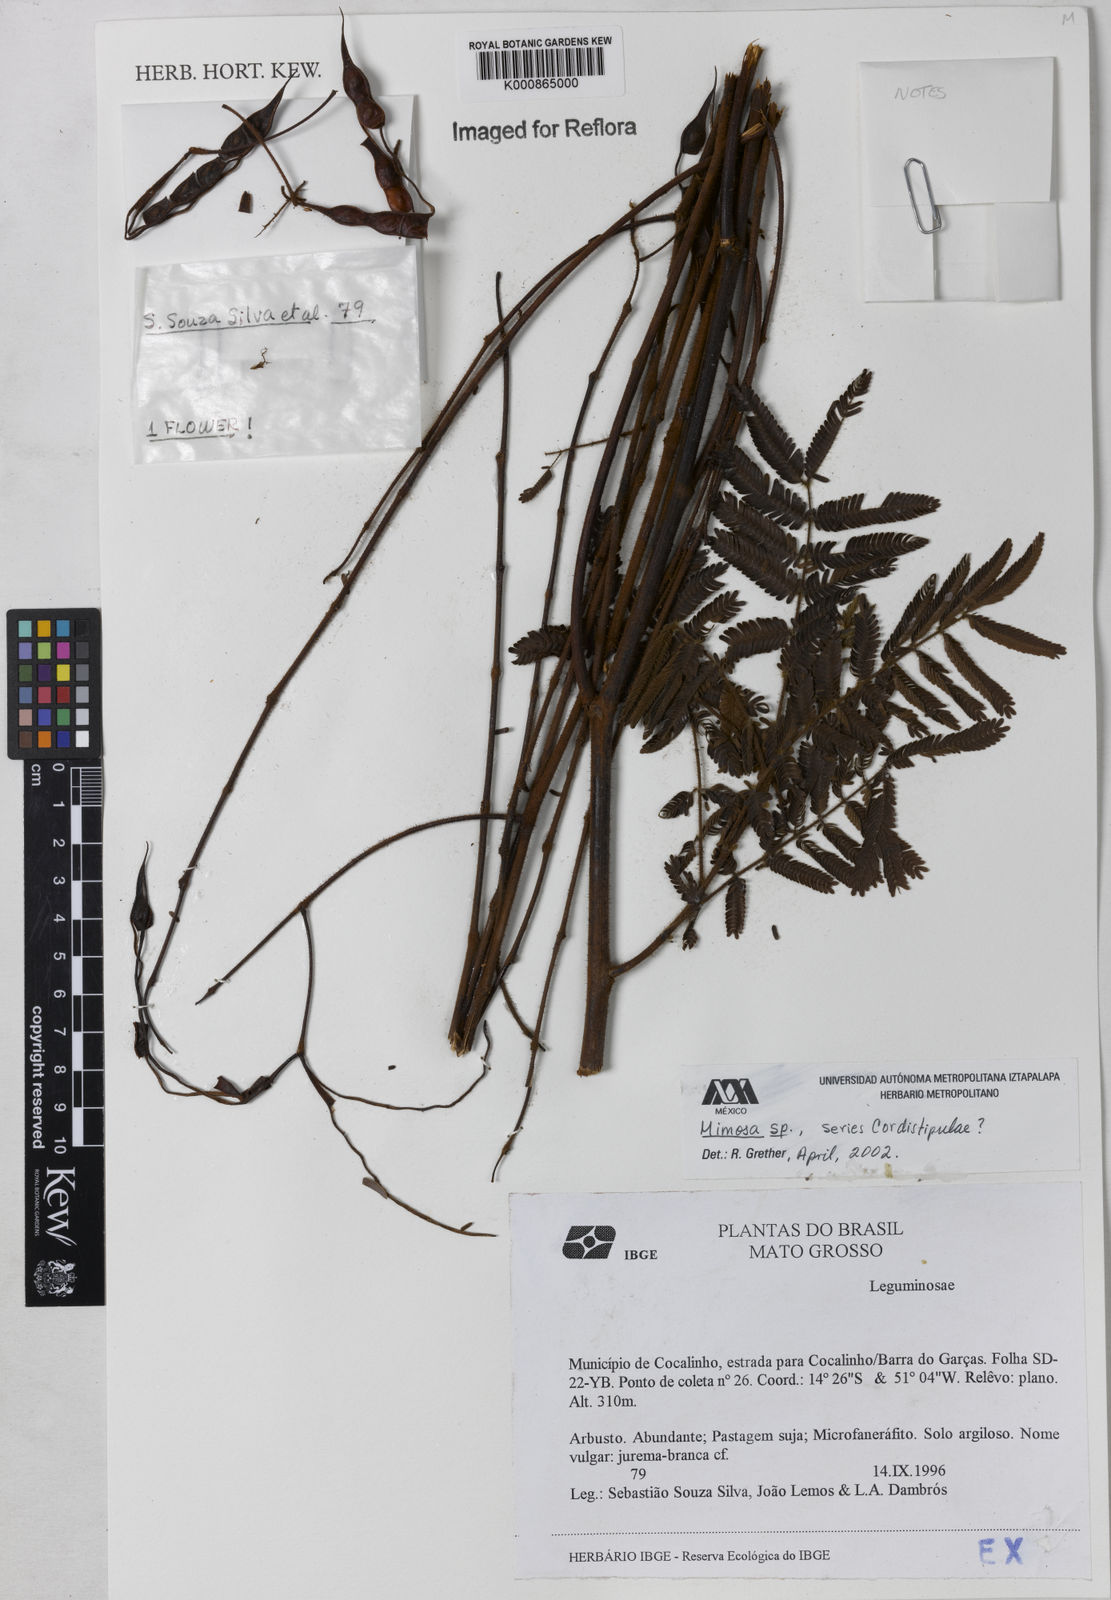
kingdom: Plantae
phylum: Tracheophyta
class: Magnoliopsida
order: Fabales
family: Fabaceae
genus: Mimosa
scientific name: Mimosa melanocarpa
